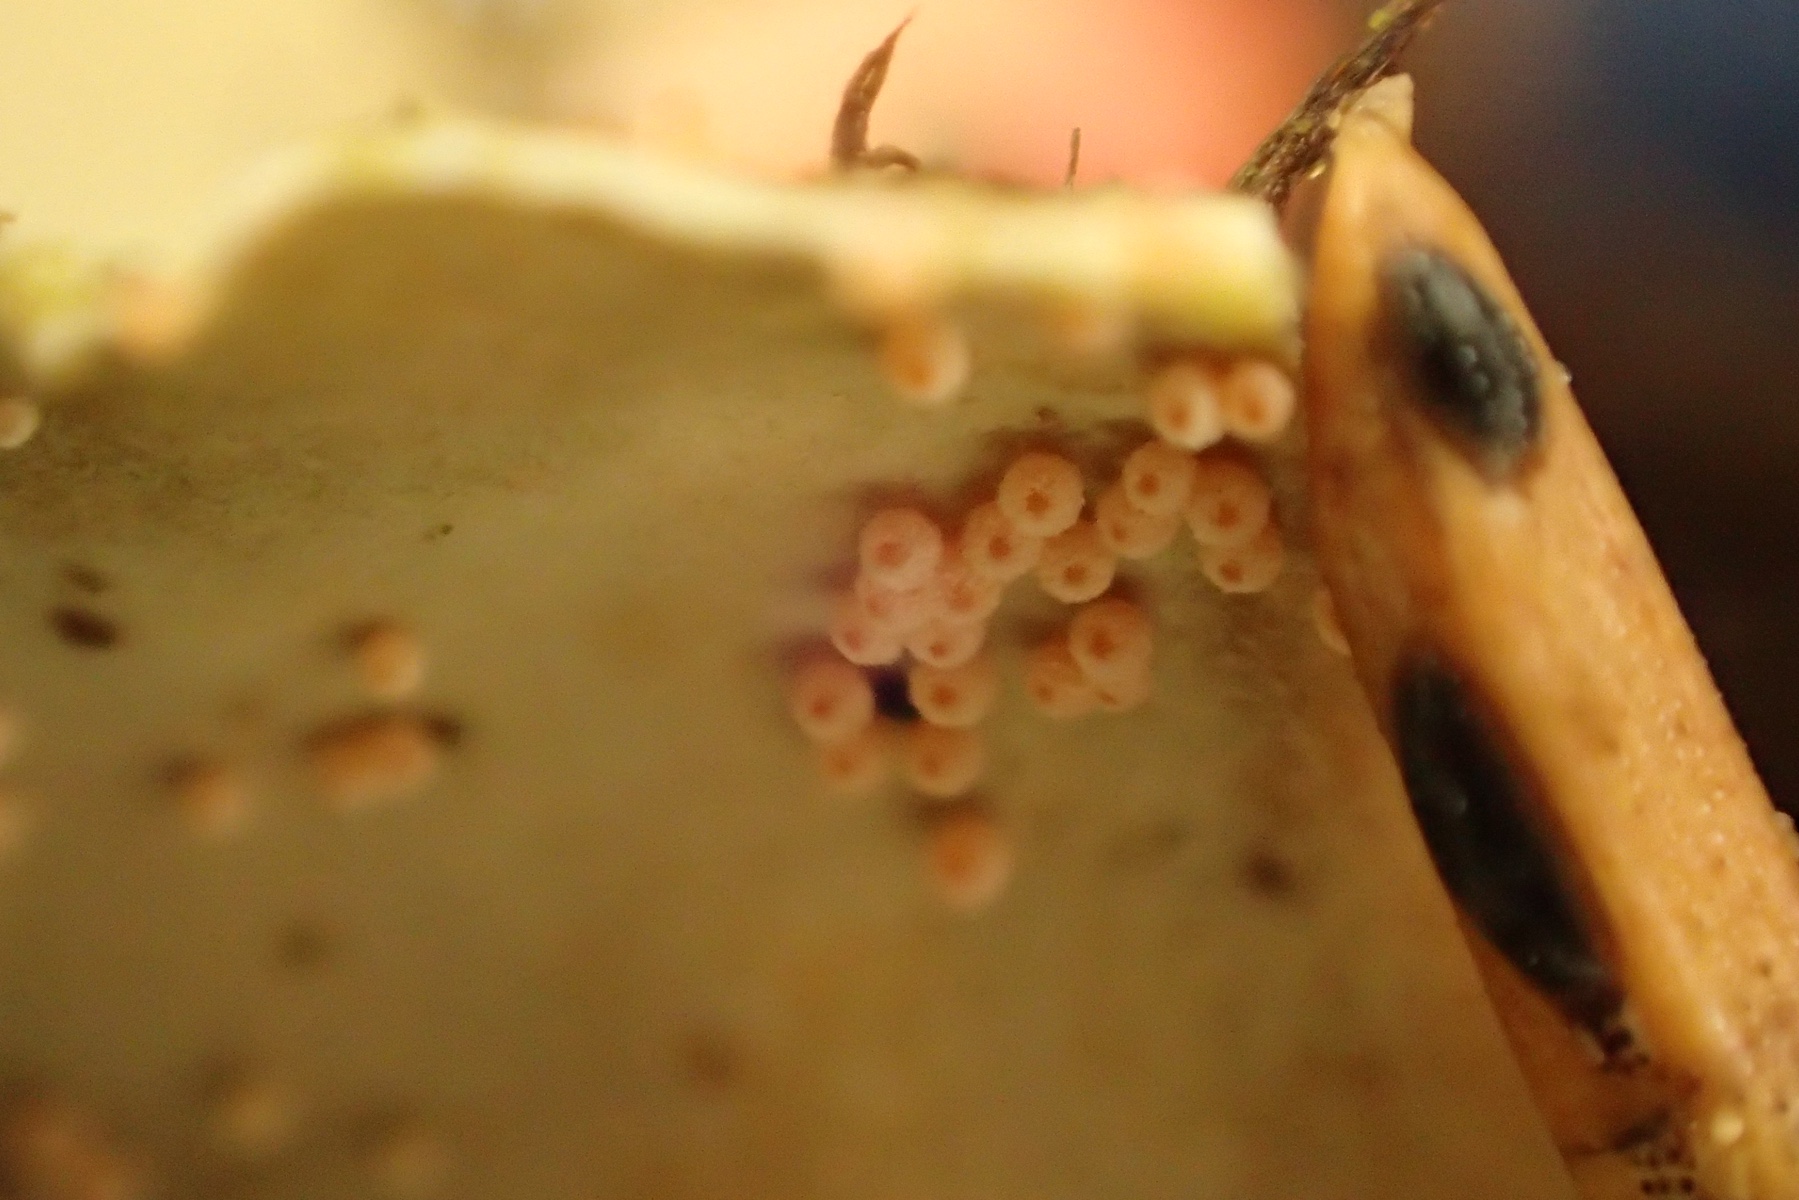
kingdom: Fungi
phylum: Ascomycota
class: Sordariomycetes
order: Hypocreales
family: Bionectriaceae
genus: Nectriopsis
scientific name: Nectriopsis lecanodes
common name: skjoldlav-gyldenkerne
